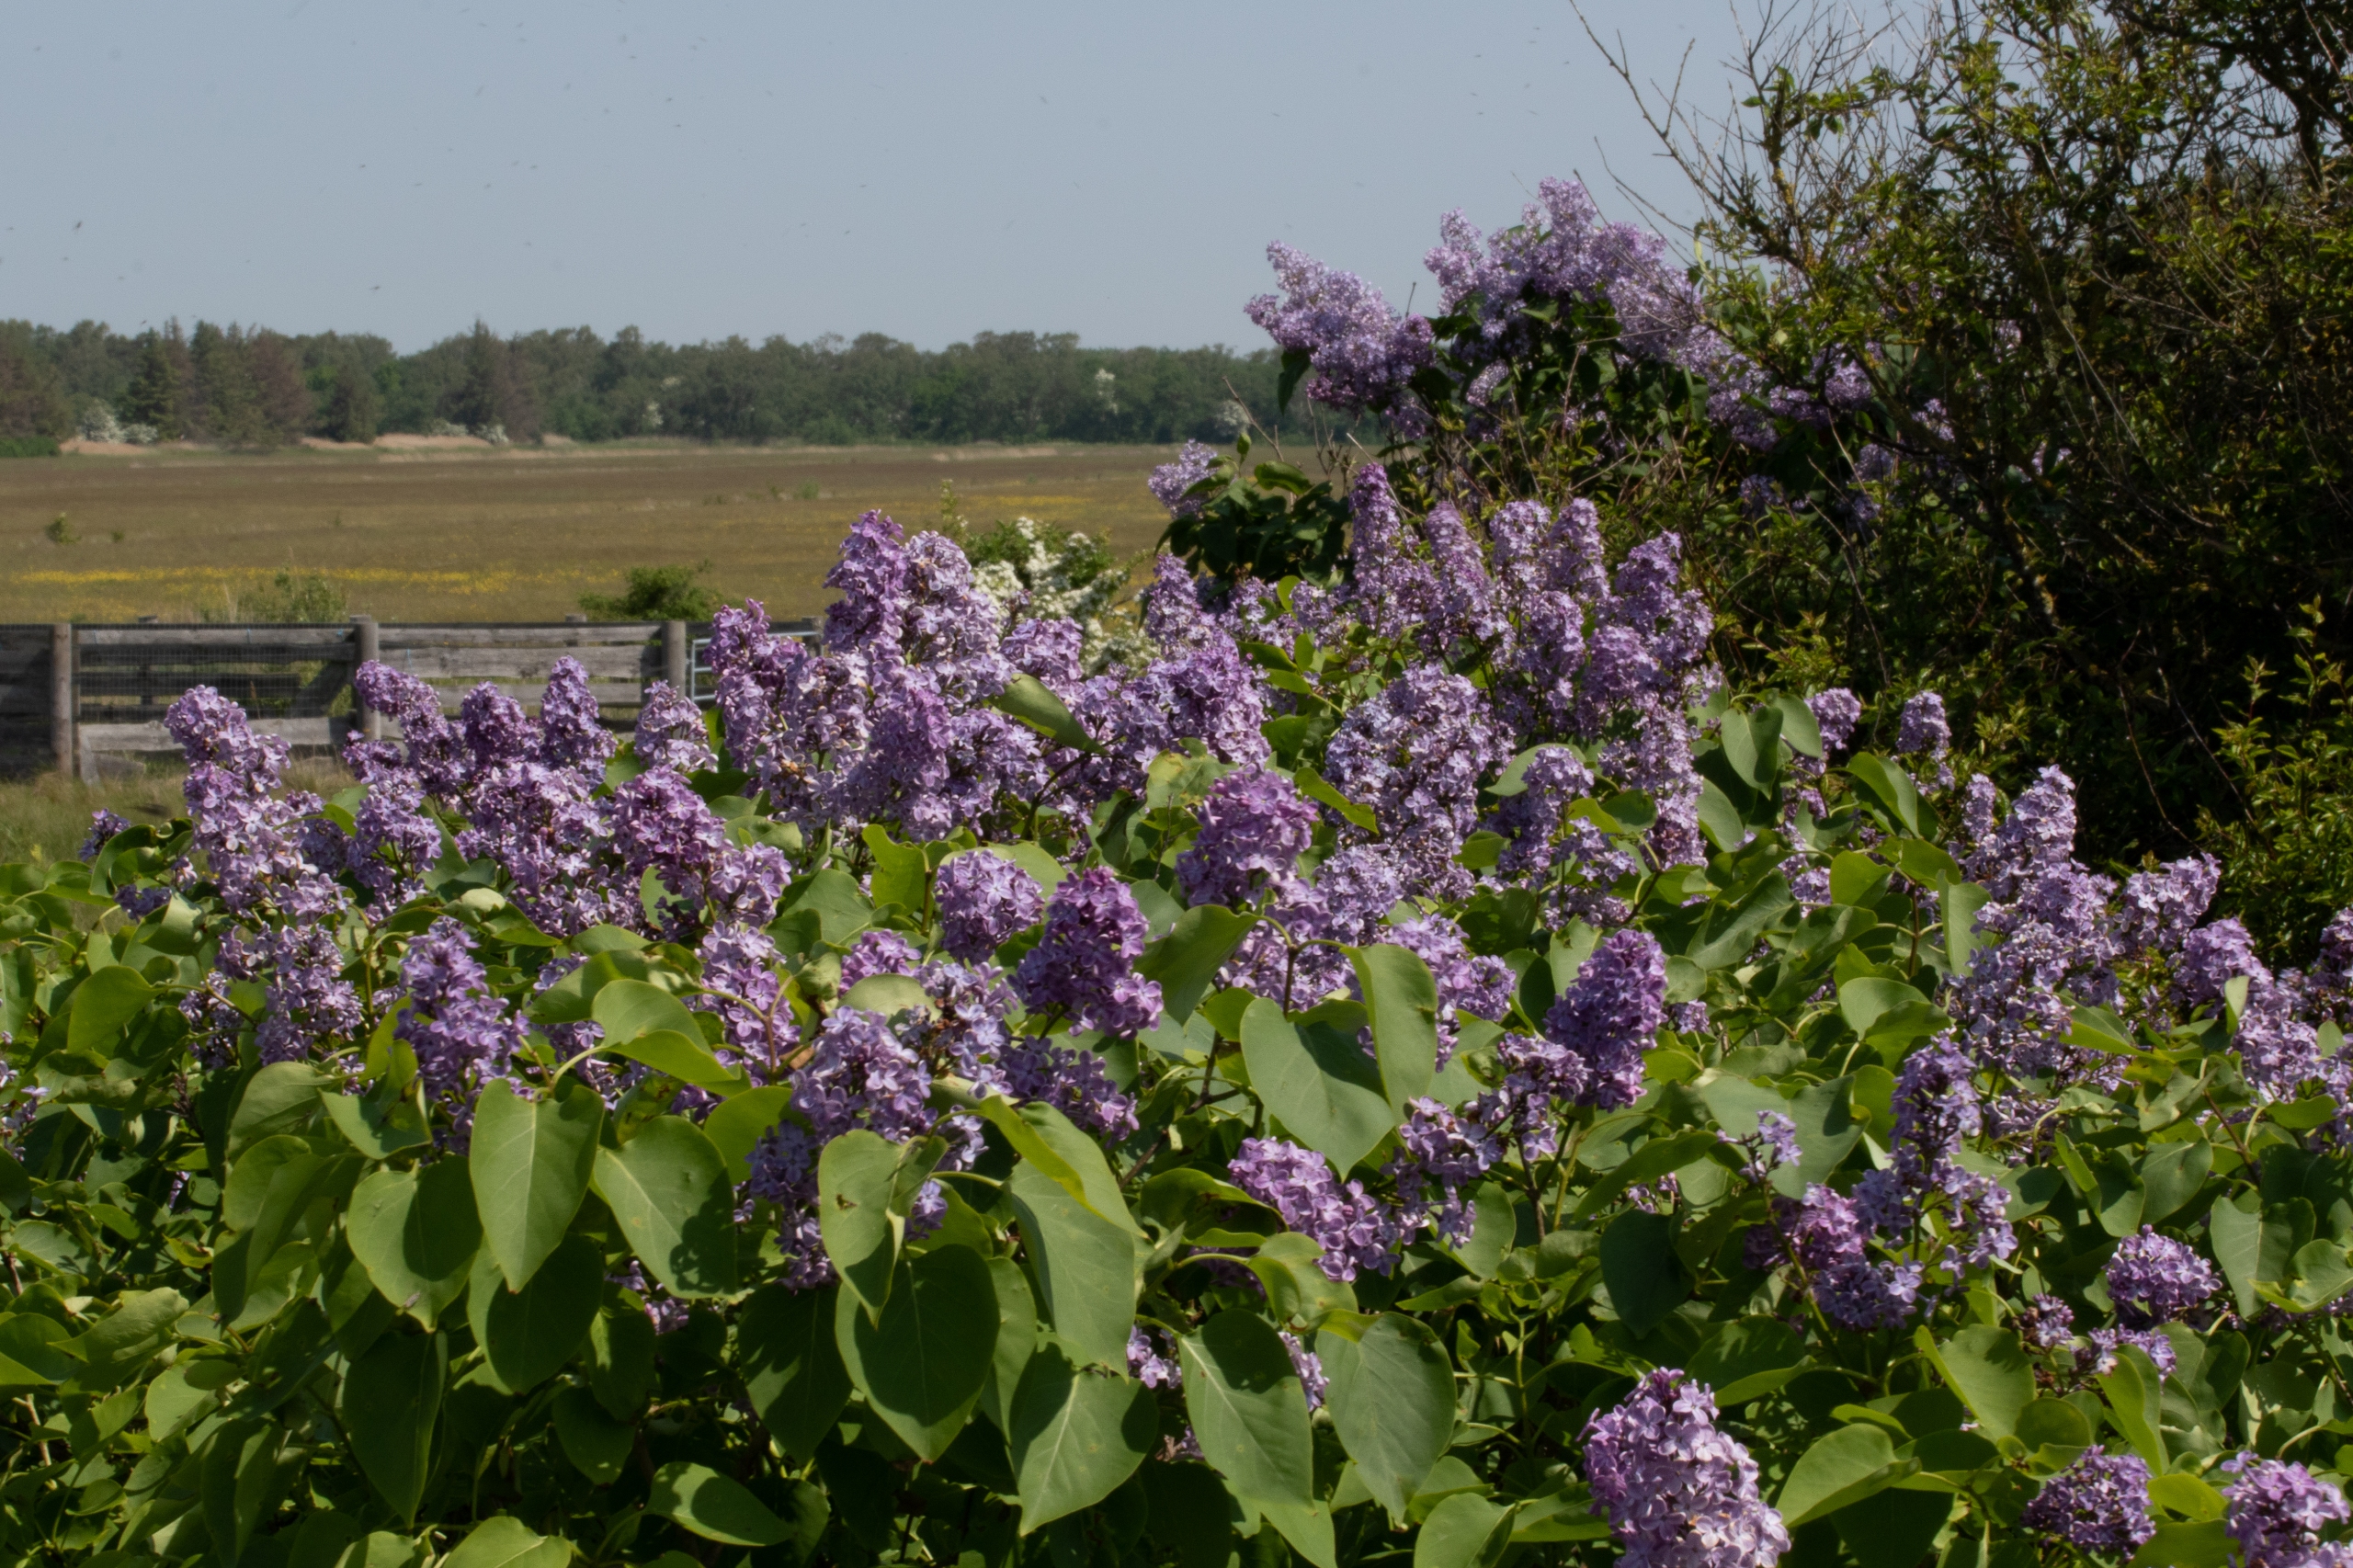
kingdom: Plantae
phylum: Tracheophyta
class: Magnoliopsida
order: Lamiales
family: Oleaceae
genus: Syringa
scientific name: Syringa vulgaris
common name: Syren
